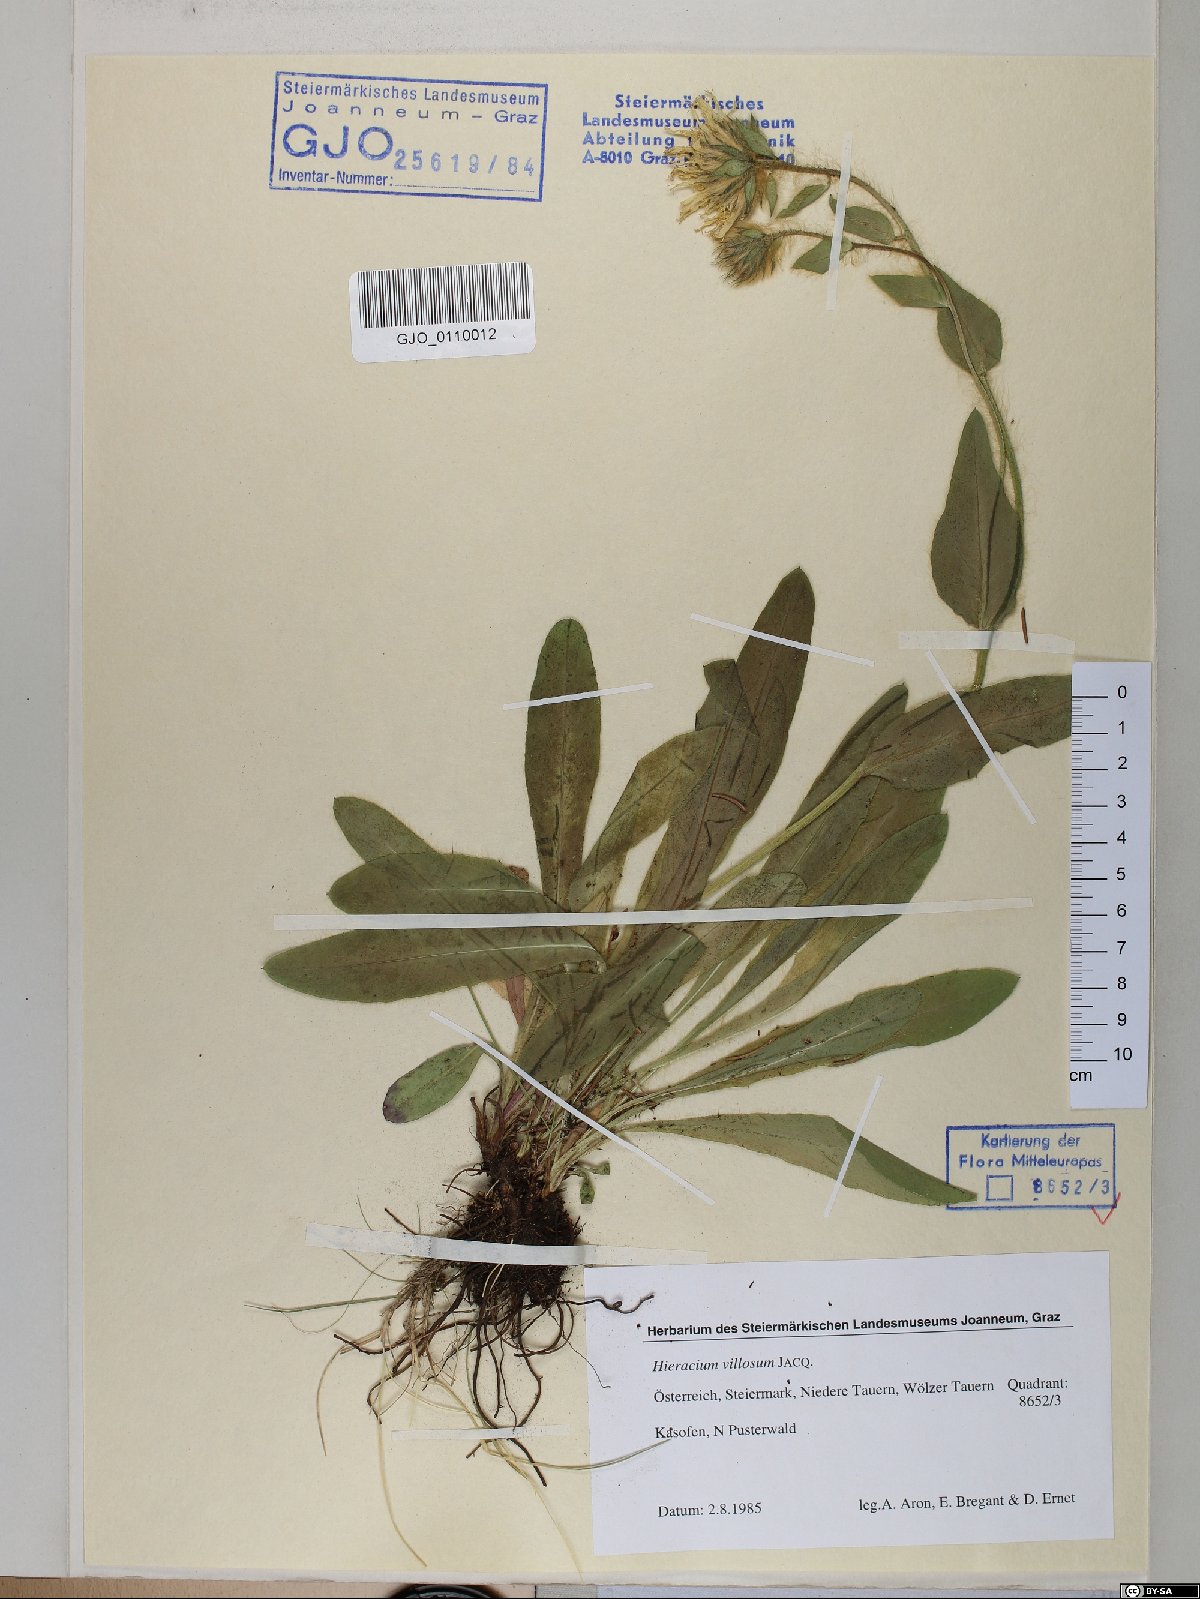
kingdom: Plantae
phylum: Tracheophyta
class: Magnoliopsida
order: Asterales
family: Asteraceae
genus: Hieracium
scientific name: Hieracium villosum
